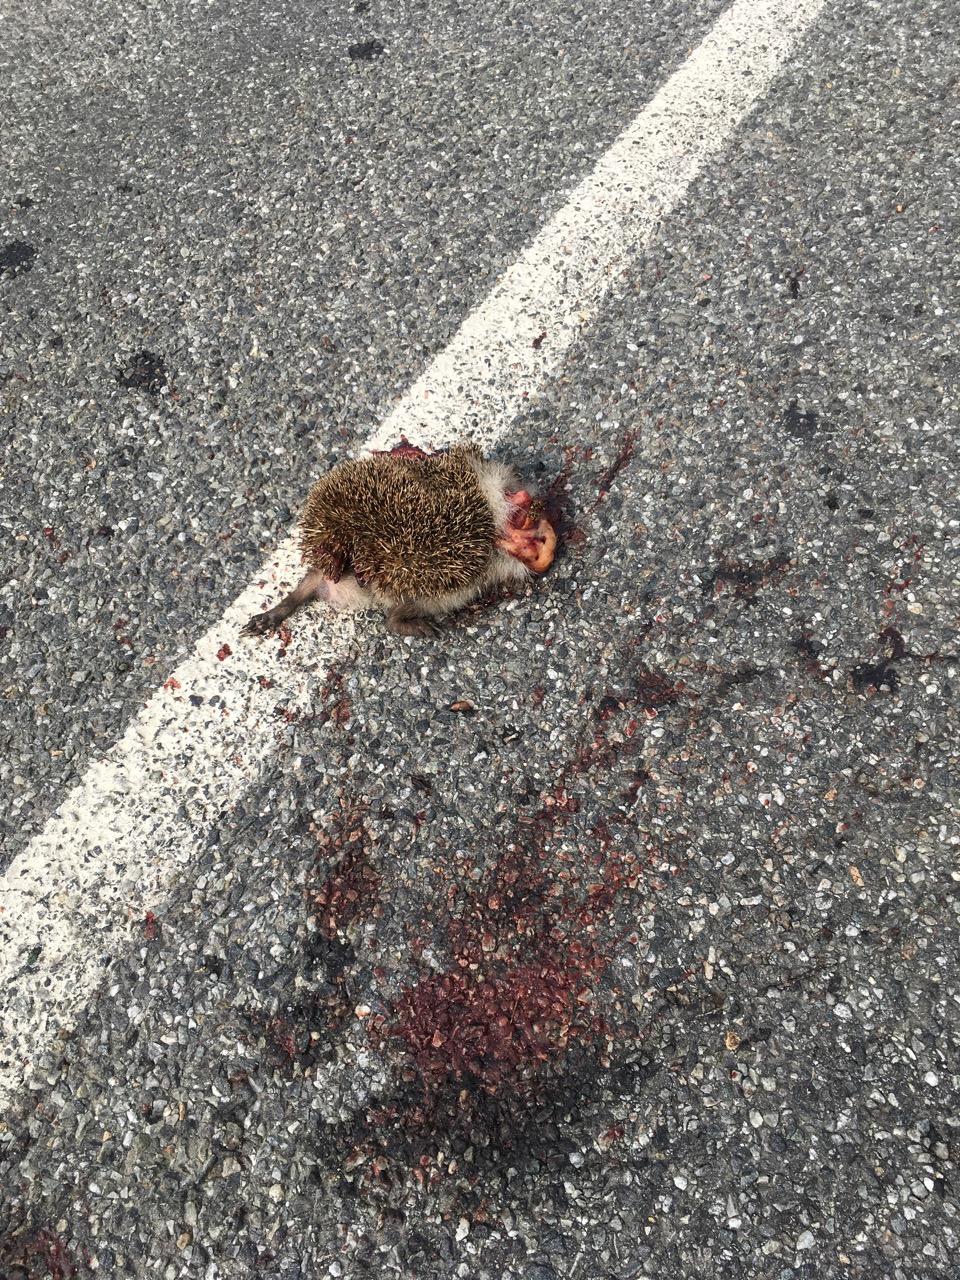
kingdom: Animalia
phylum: Chordata
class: Mammalia
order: Erinaceomorpha
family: Erinaceidae
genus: Erinaceus
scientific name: Erinaceus
